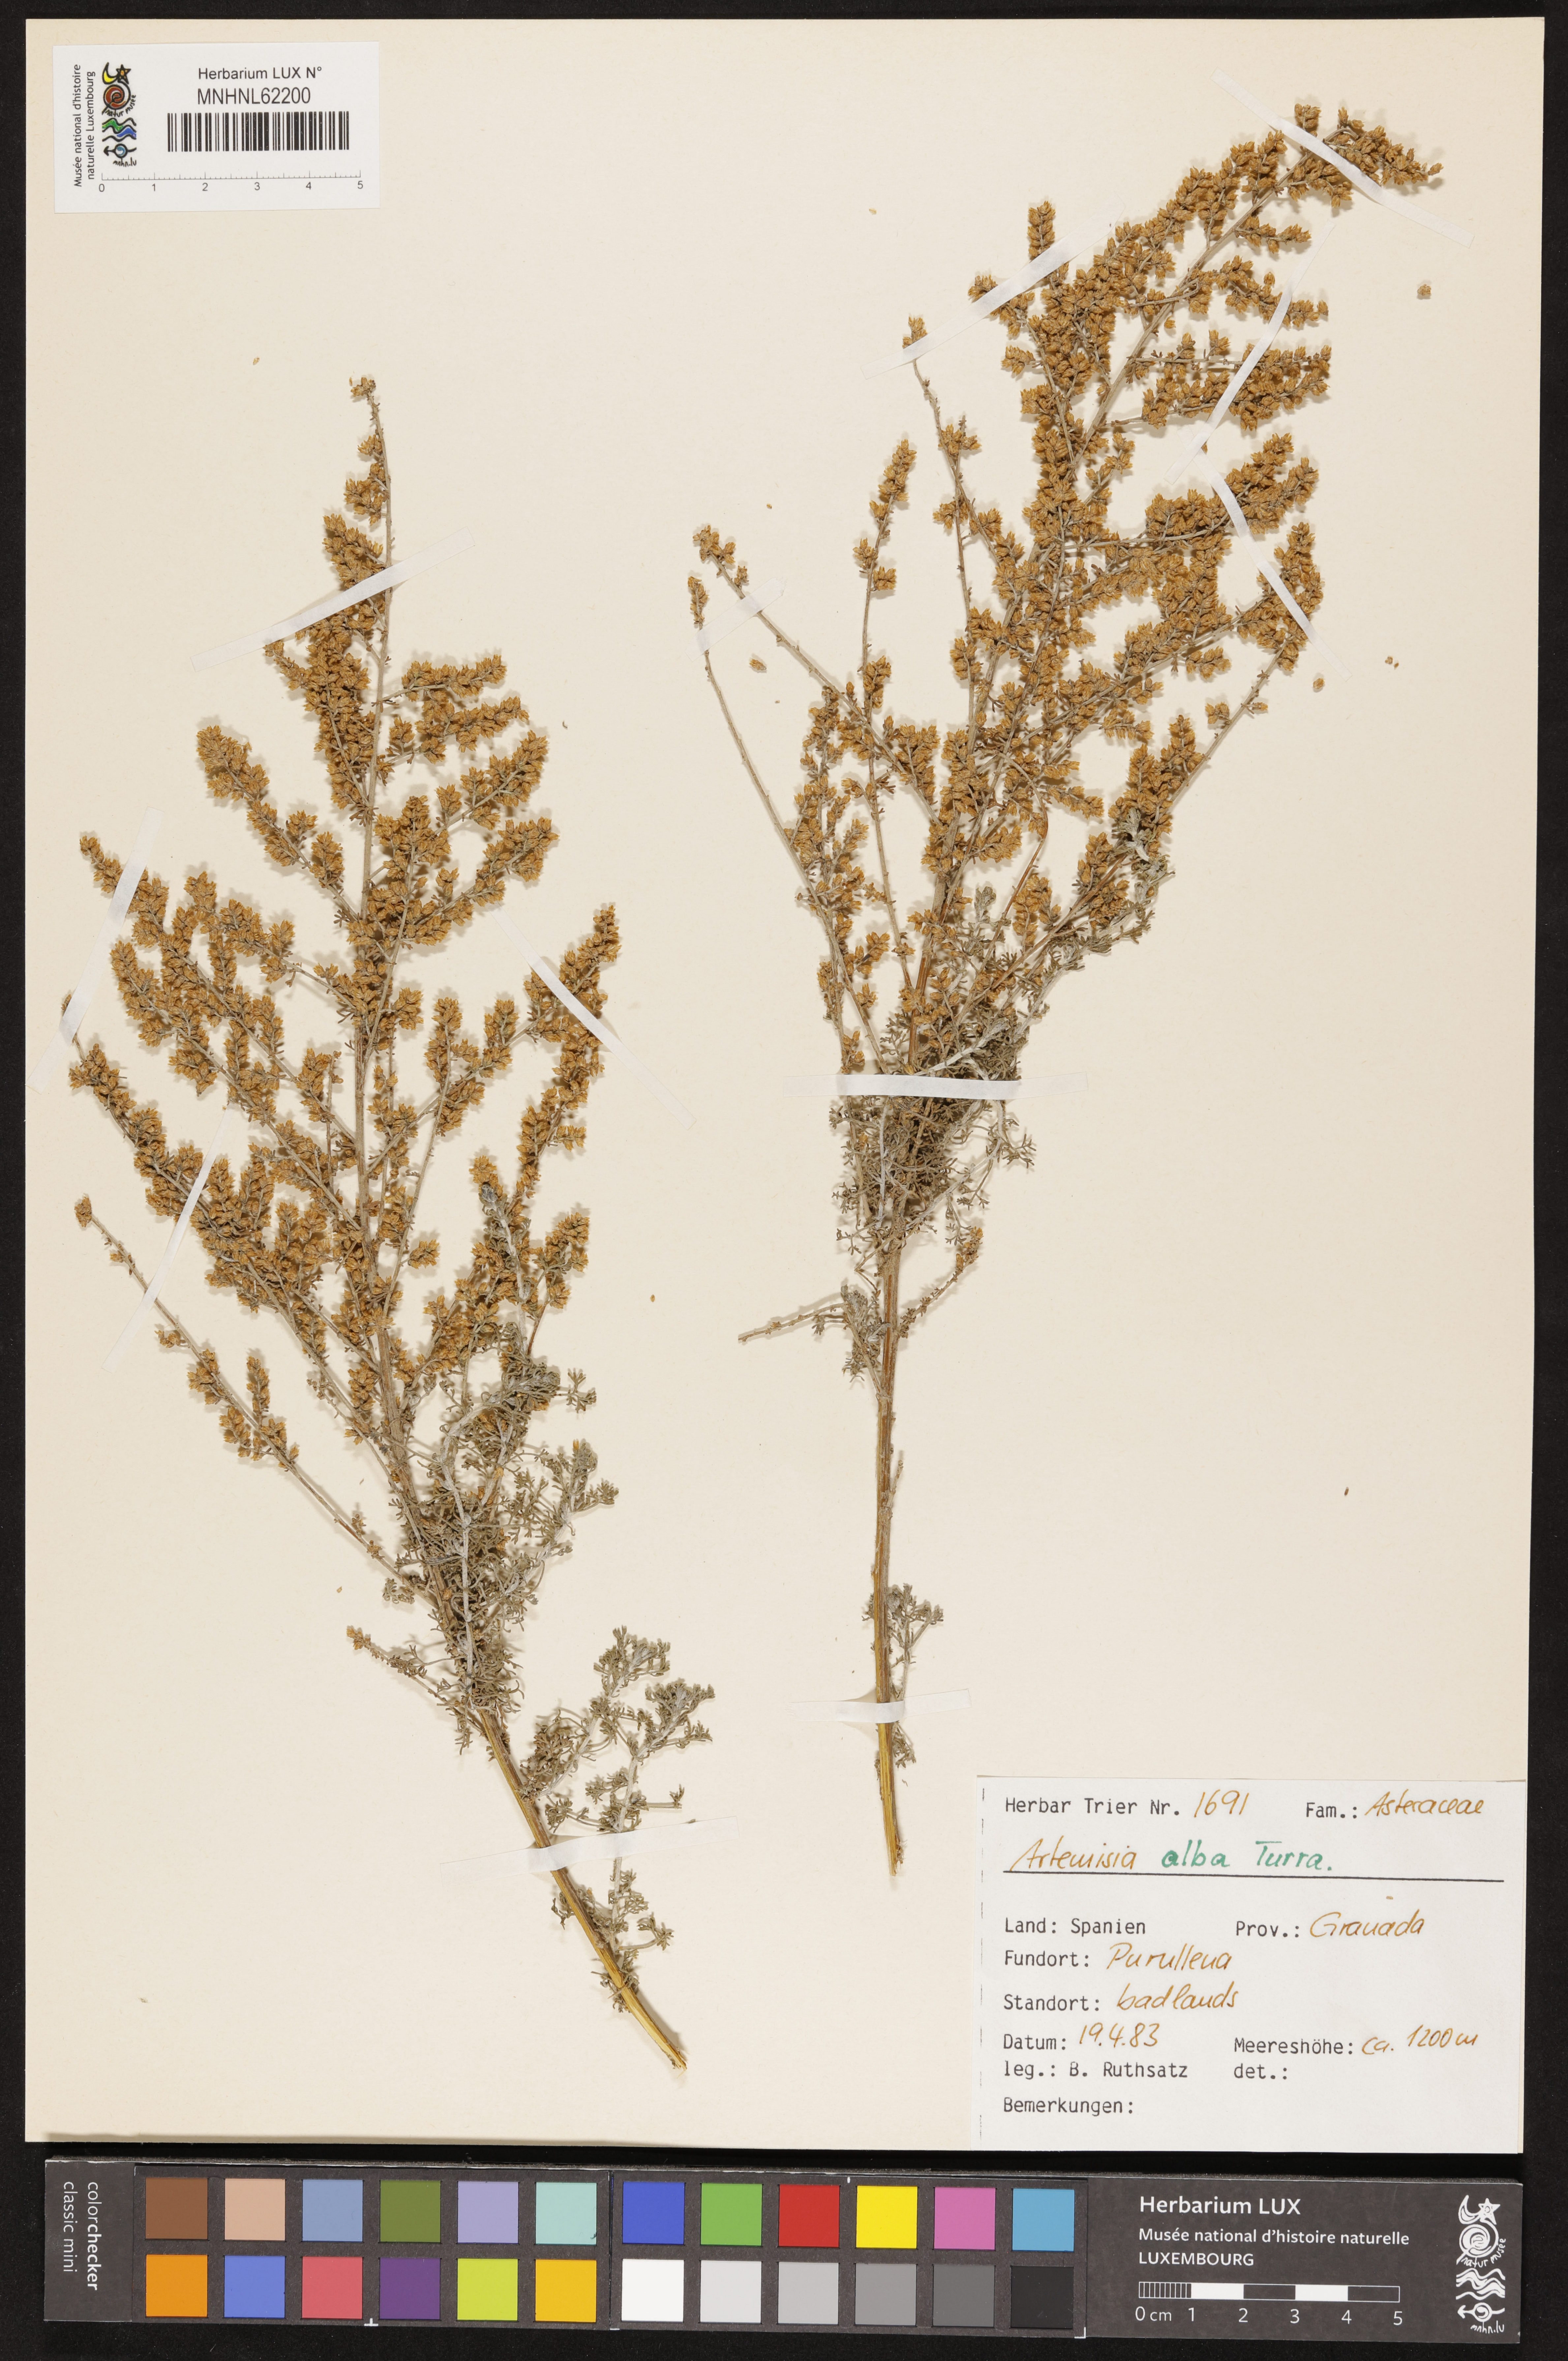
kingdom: Plantae
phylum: Tracheophyta
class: Magnoliopsida
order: Asterales
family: Asteraceae
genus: Artemisia
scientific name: Artemisia alba
